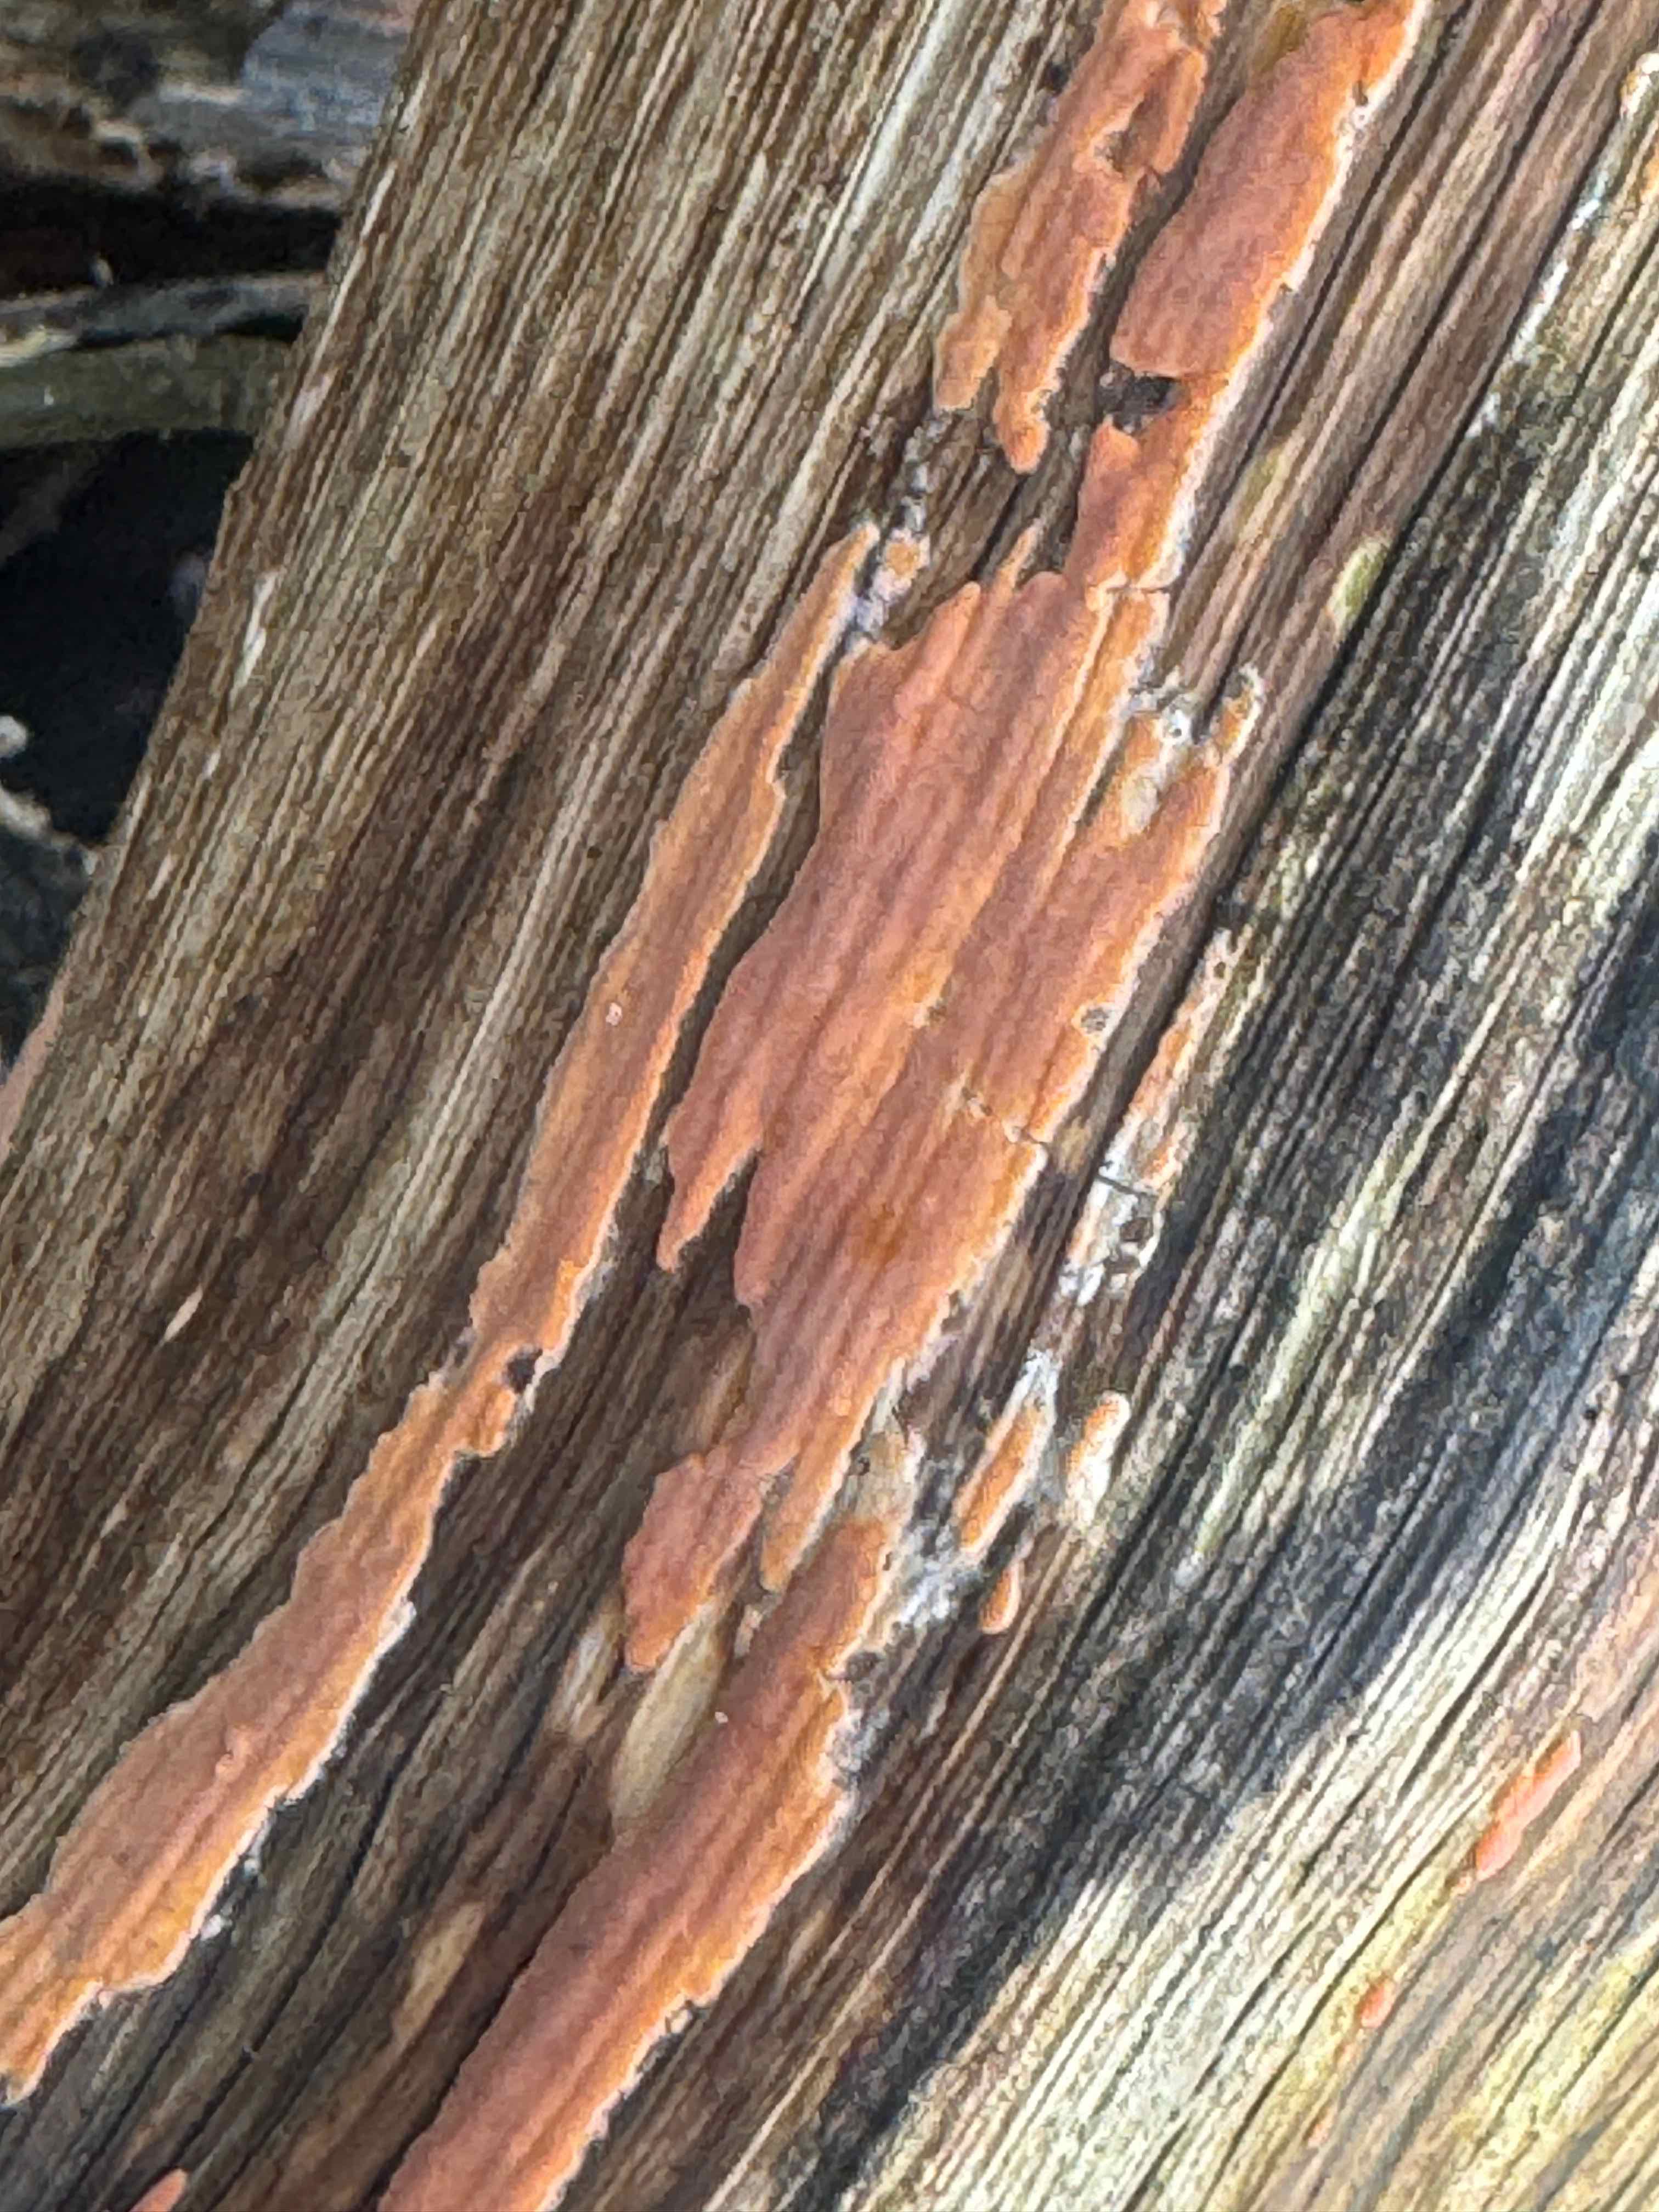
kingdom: Fungi
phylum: Basidiomycota
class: Agaricomycetes
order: Russulales
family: Peniophoraceae
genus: Peniophora
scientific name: Peniophora incarnata
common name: laksefarvet voksskind
